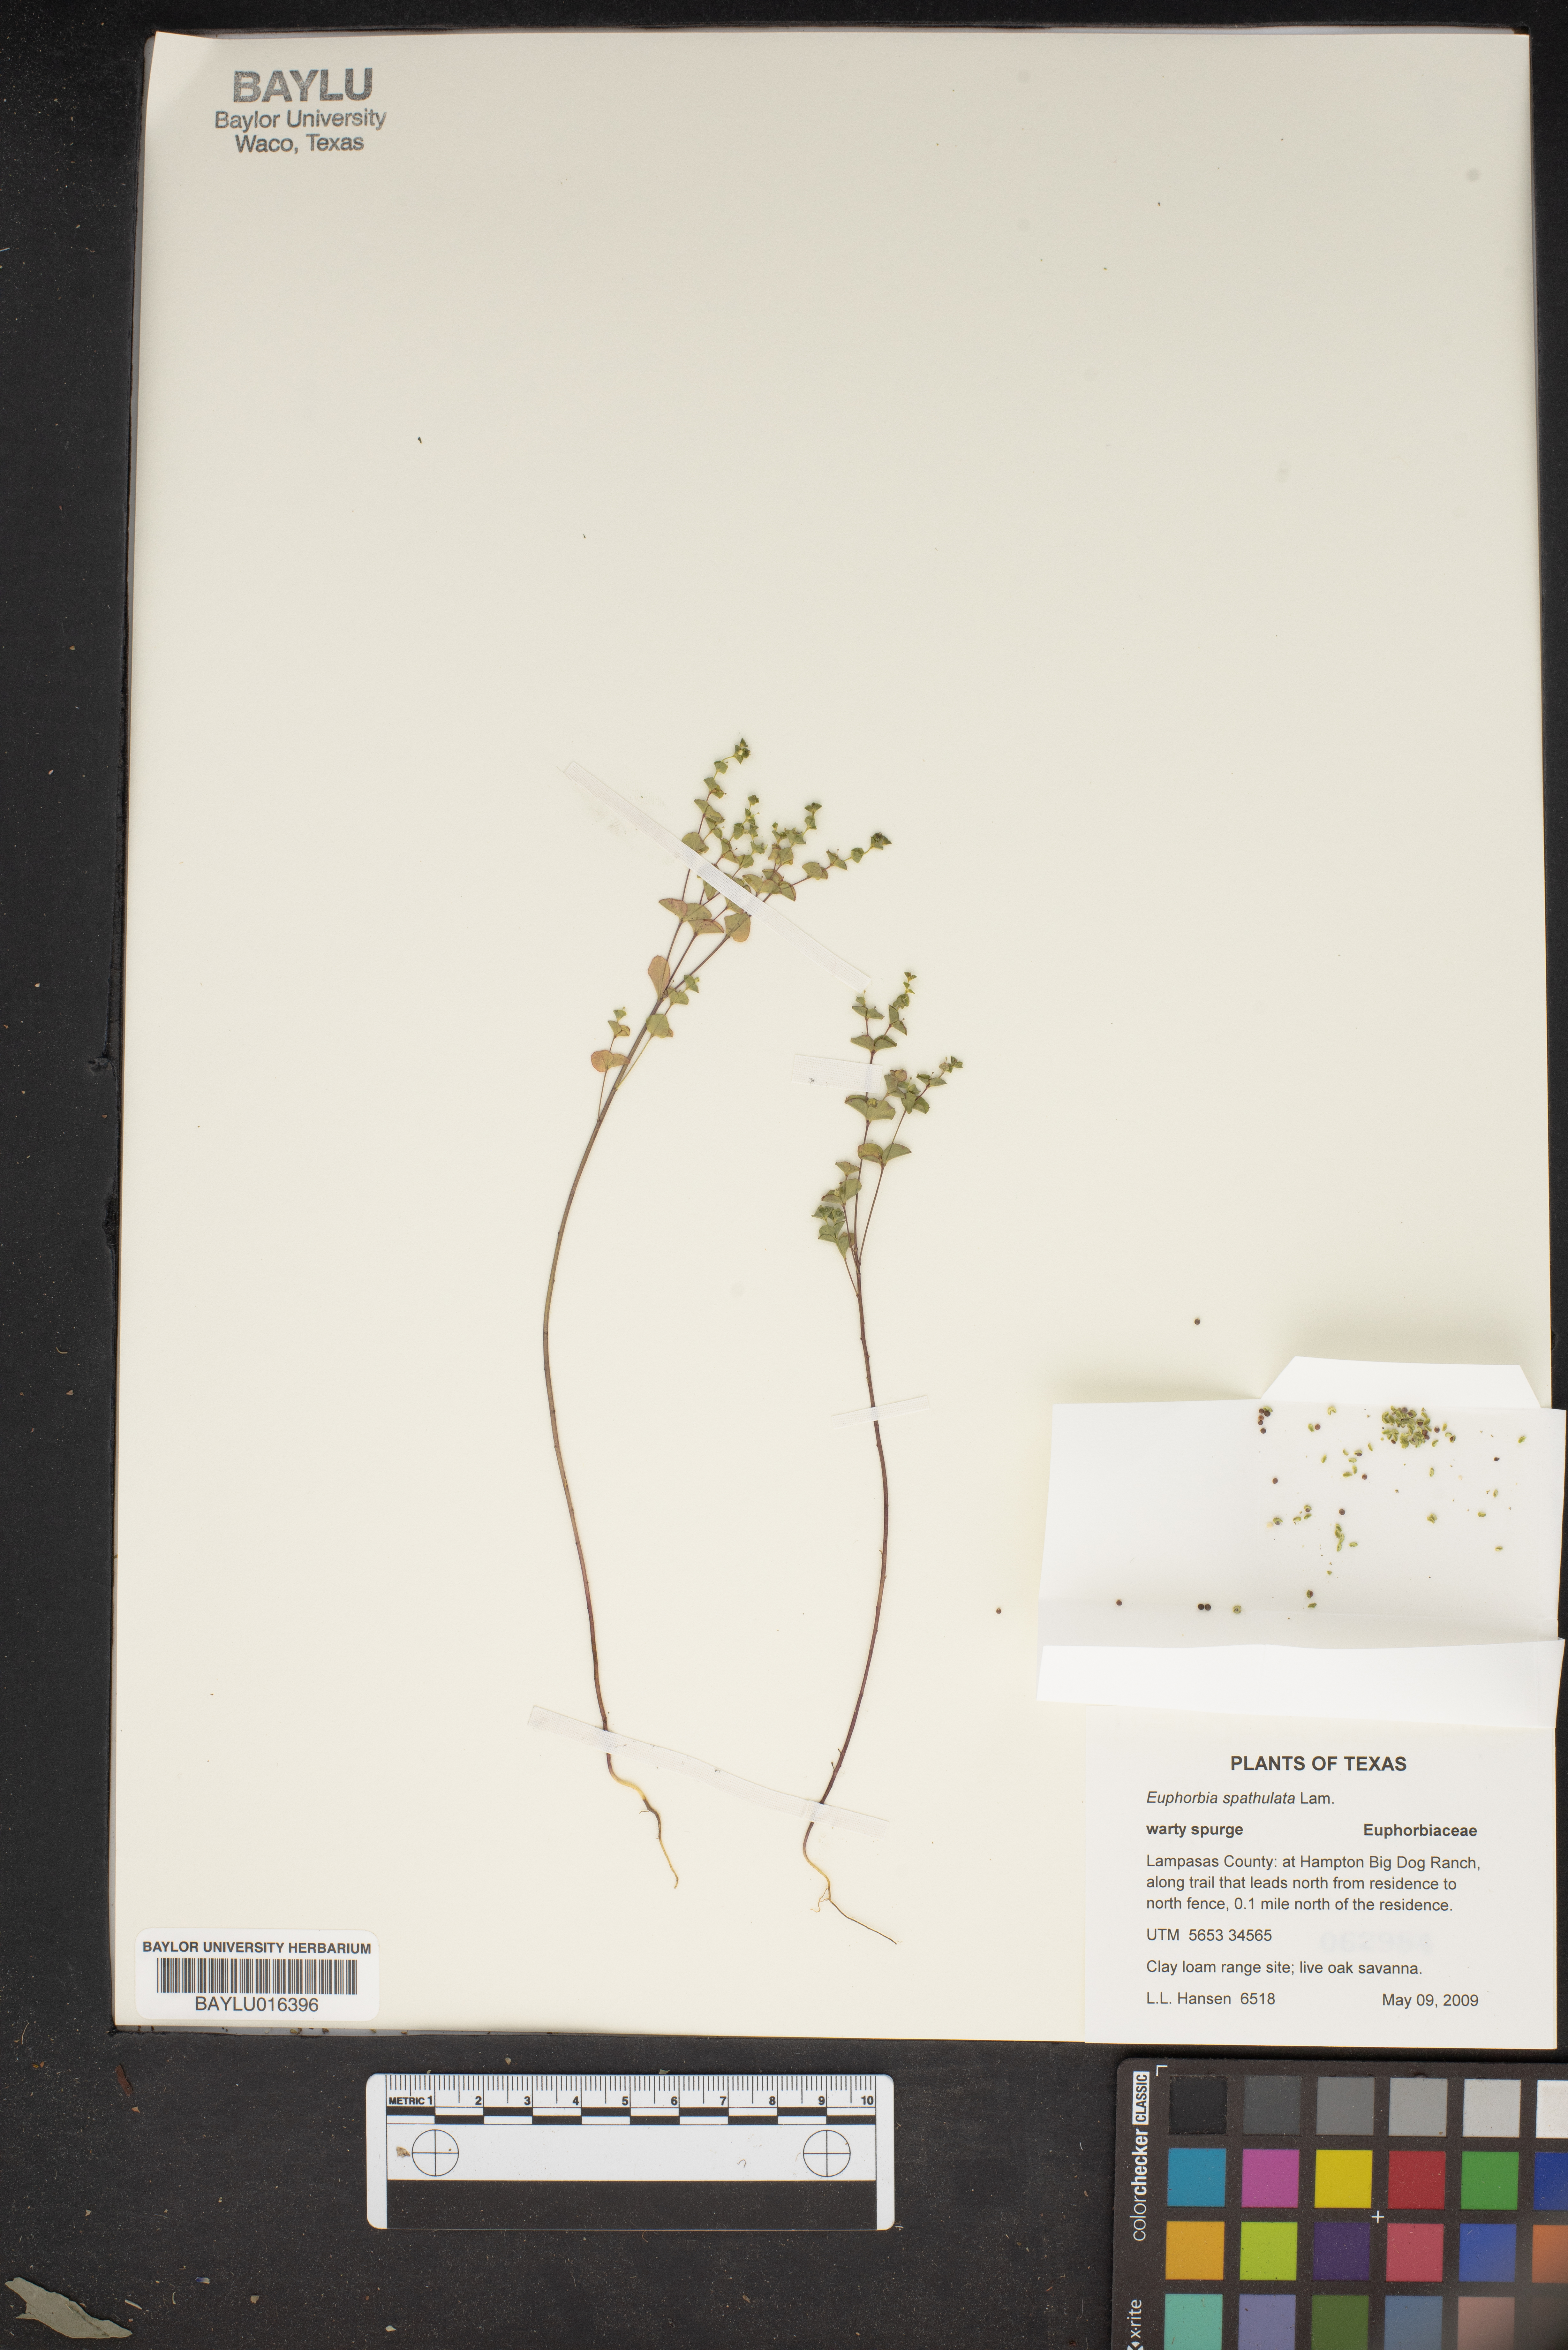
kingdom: Plantae
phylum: Tracheophyta
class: Magnoliopsida
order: Malpighiales
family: Euphorbiaceae
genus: Euphorbia
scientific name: Euphorbia spathulata
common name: Blunt spurge
